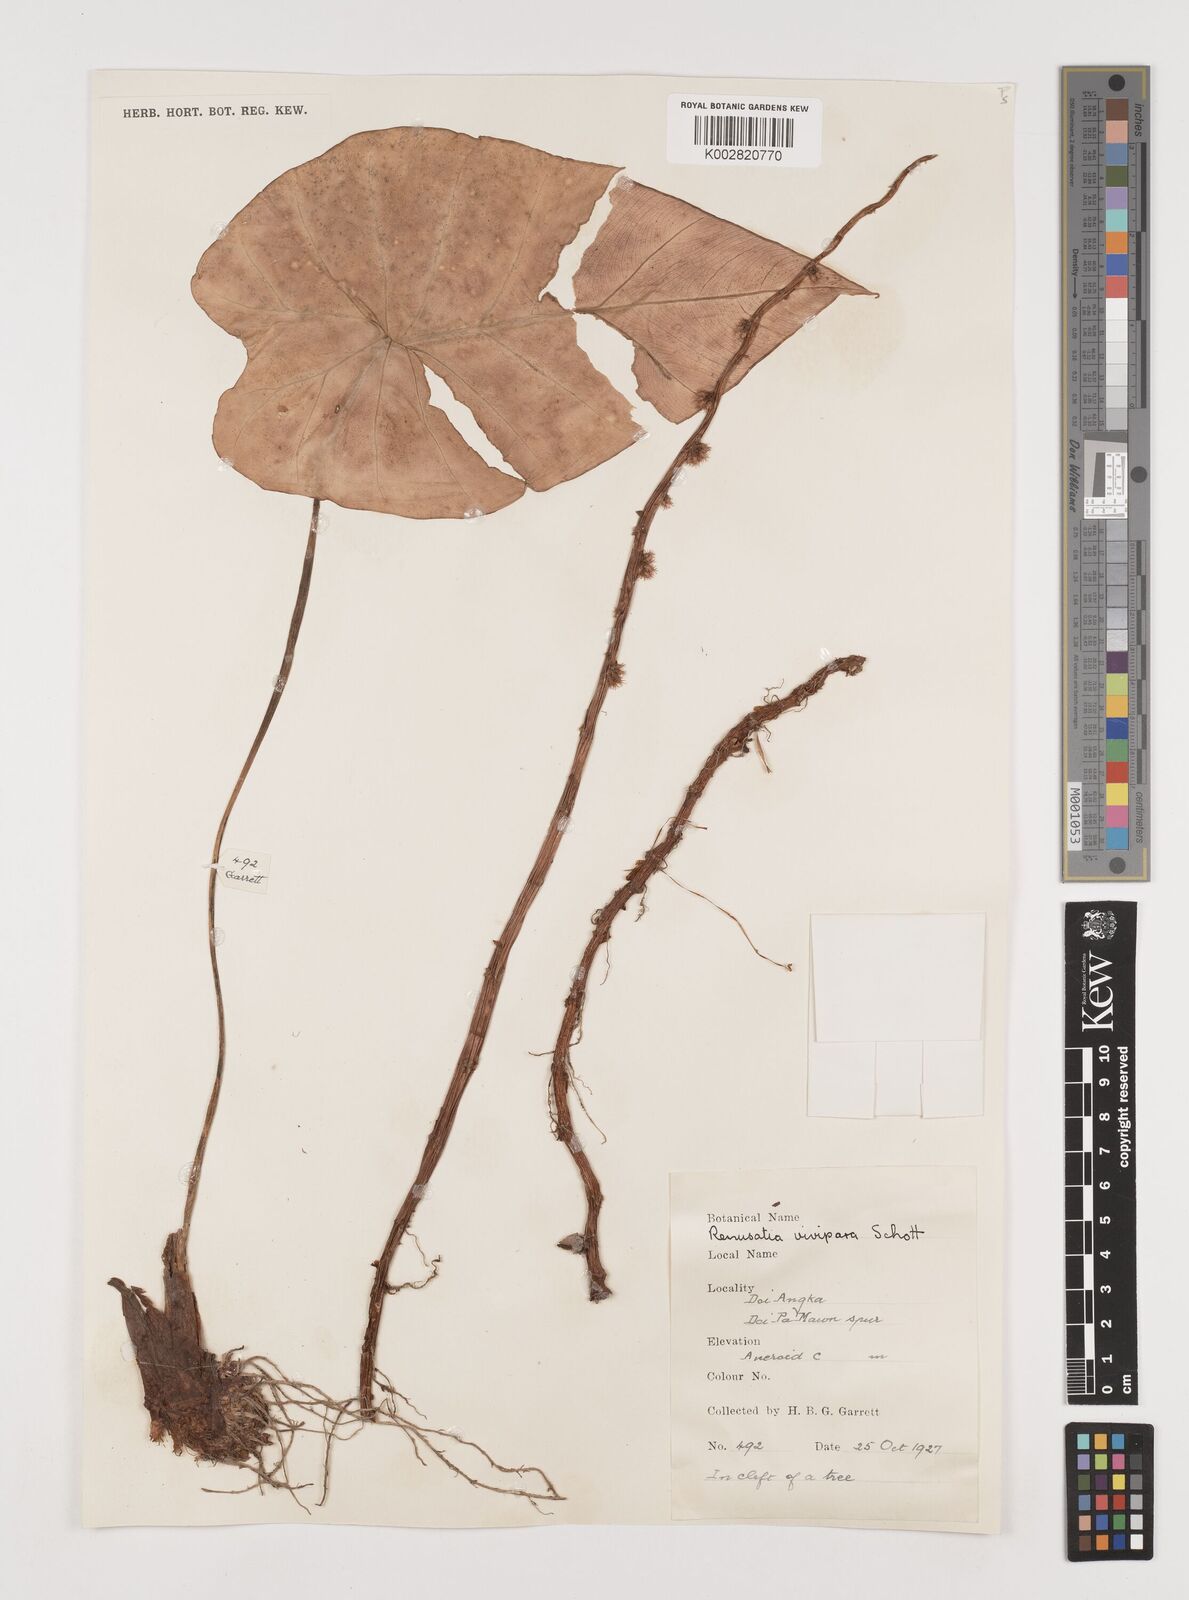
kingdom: Plantae
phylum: Tracheophyta
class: Liliopsida
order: Alismatales
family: Araceae
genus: Remusatia
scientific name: Remusatia vivipara
